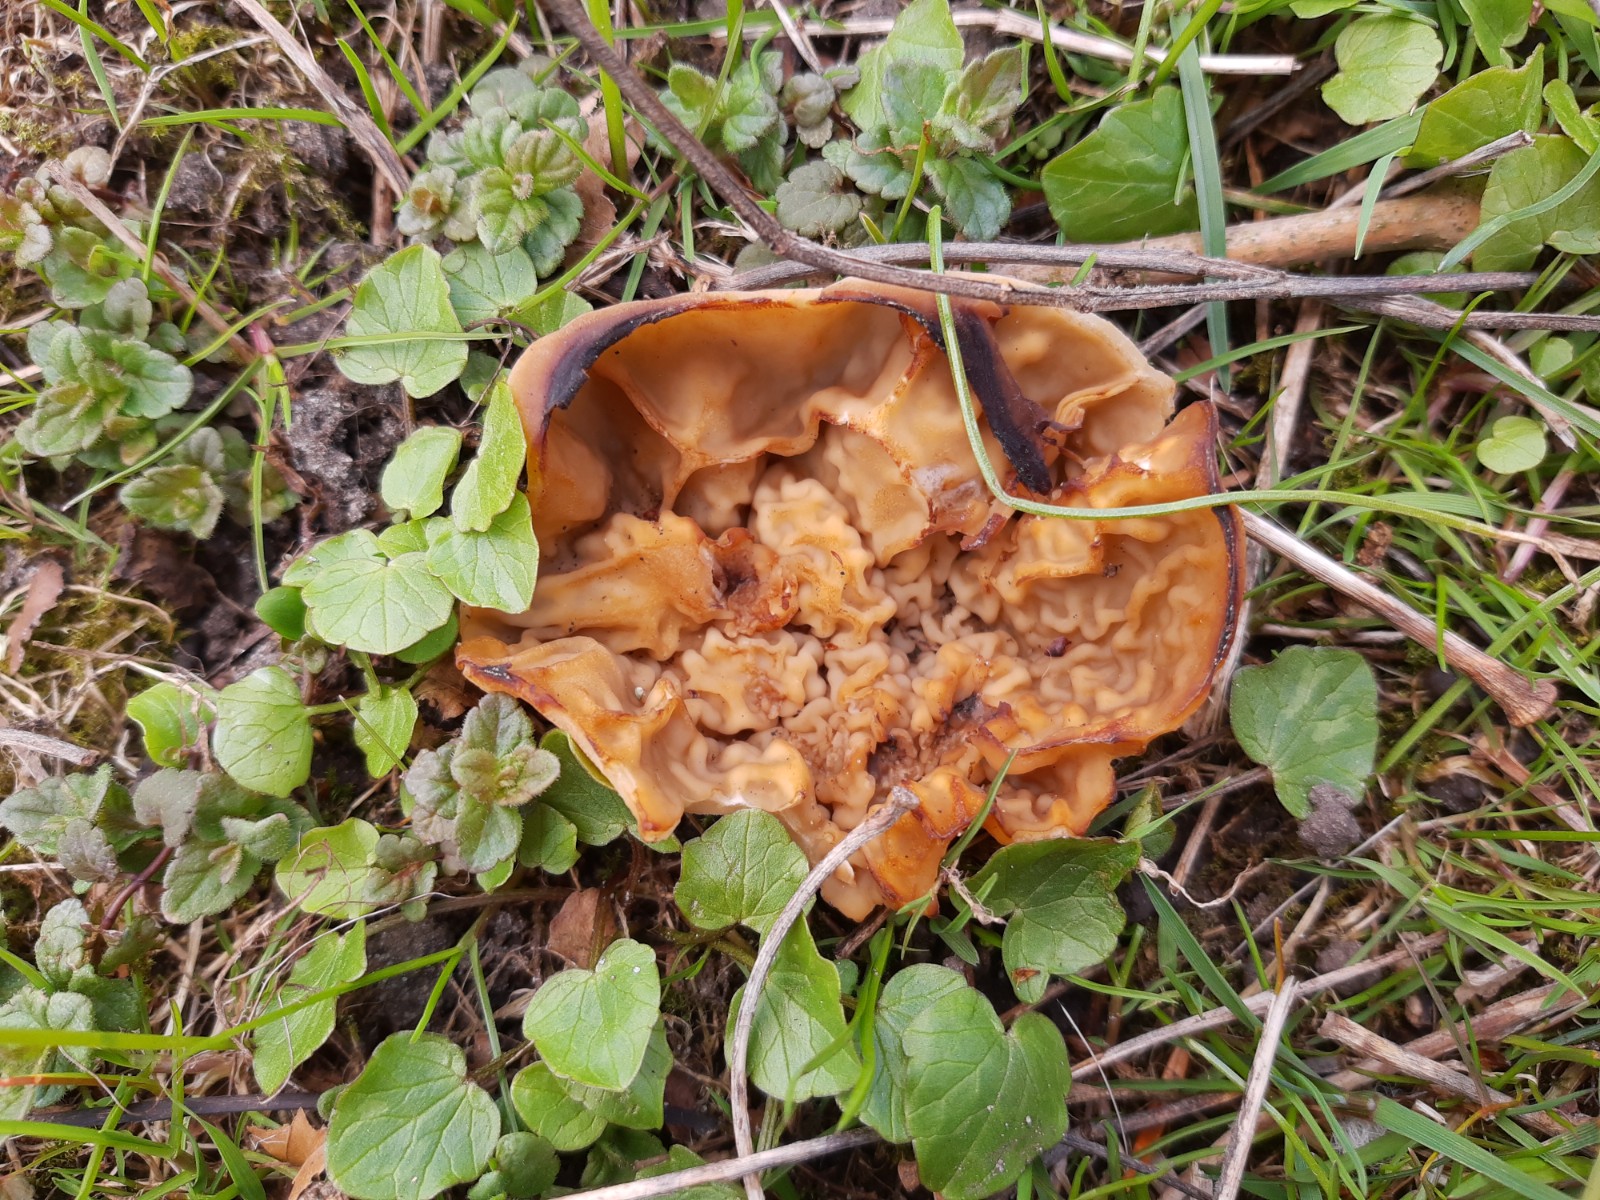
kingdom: Fungi
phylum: Ascomycota
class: Pezizomycetes
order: Pezizales
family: Morchellaceae
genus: Disciotis
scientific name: Disciotis venosa
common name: klor-bægermorkel
